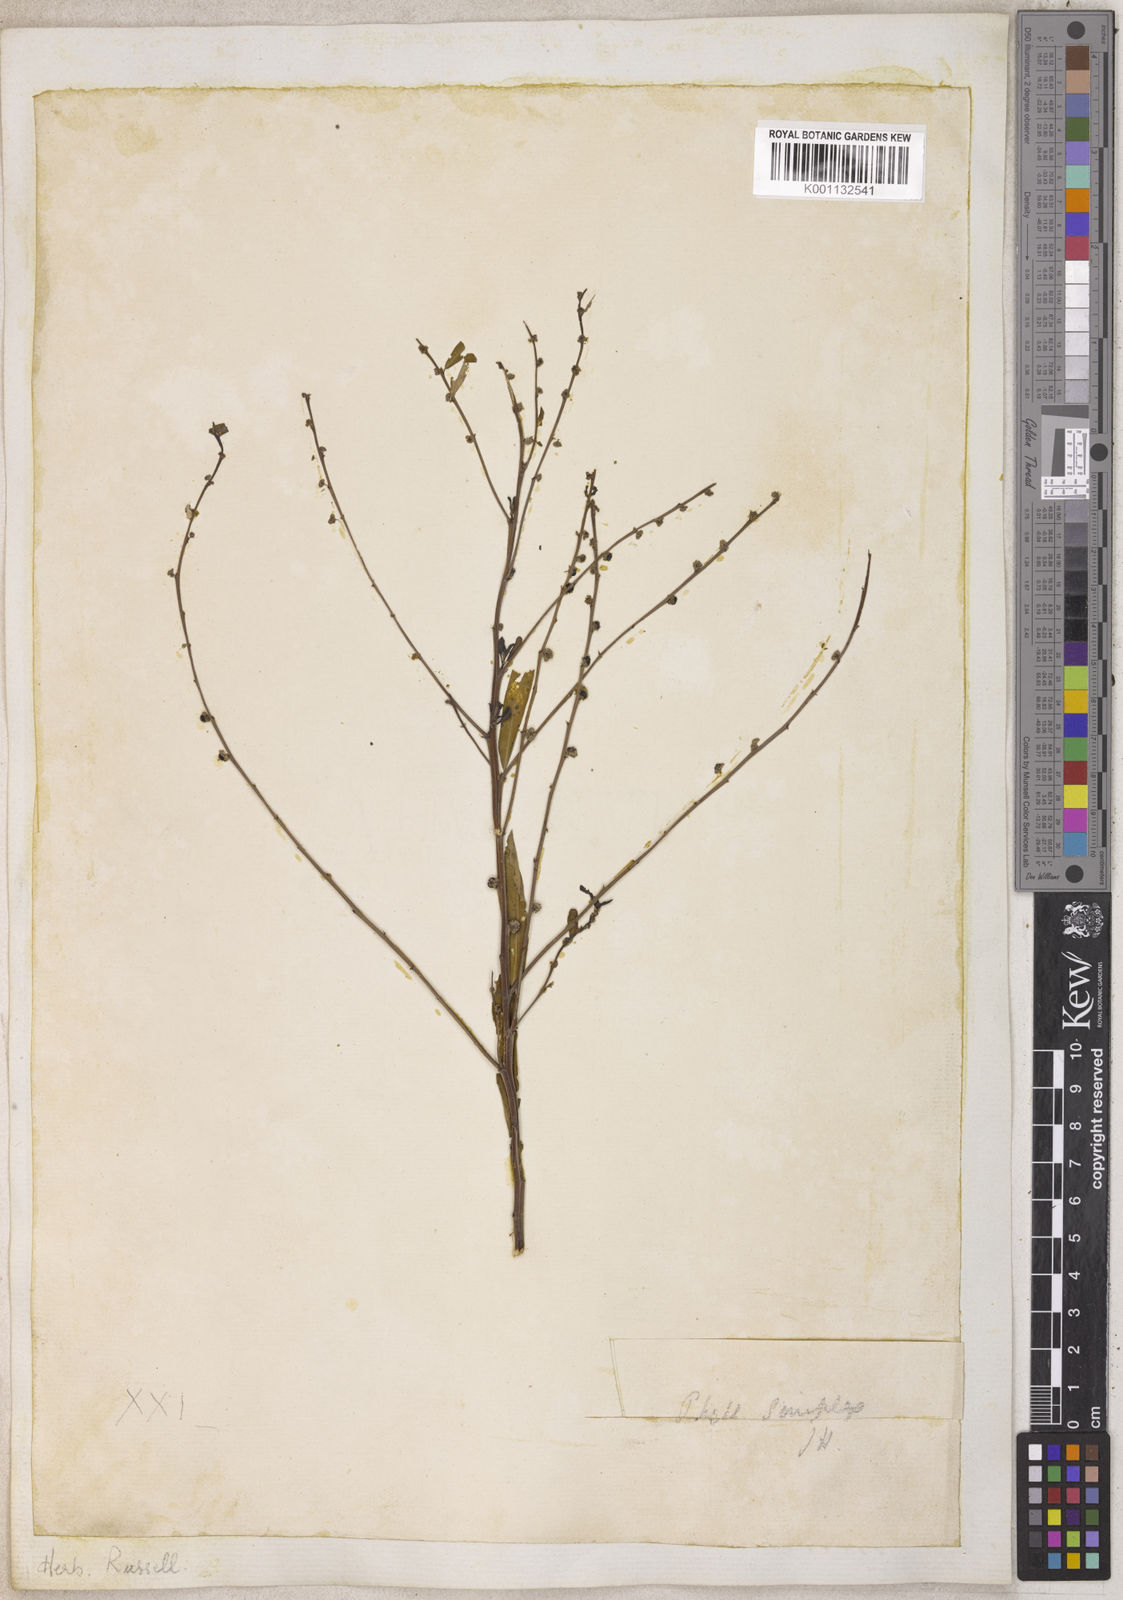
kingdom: Plantae
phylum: Tracheophyta
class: Magnoliopsida
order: Malpighiales
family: Phyllanthaceae
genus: Phyllanthus
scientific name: Phyllanthus
